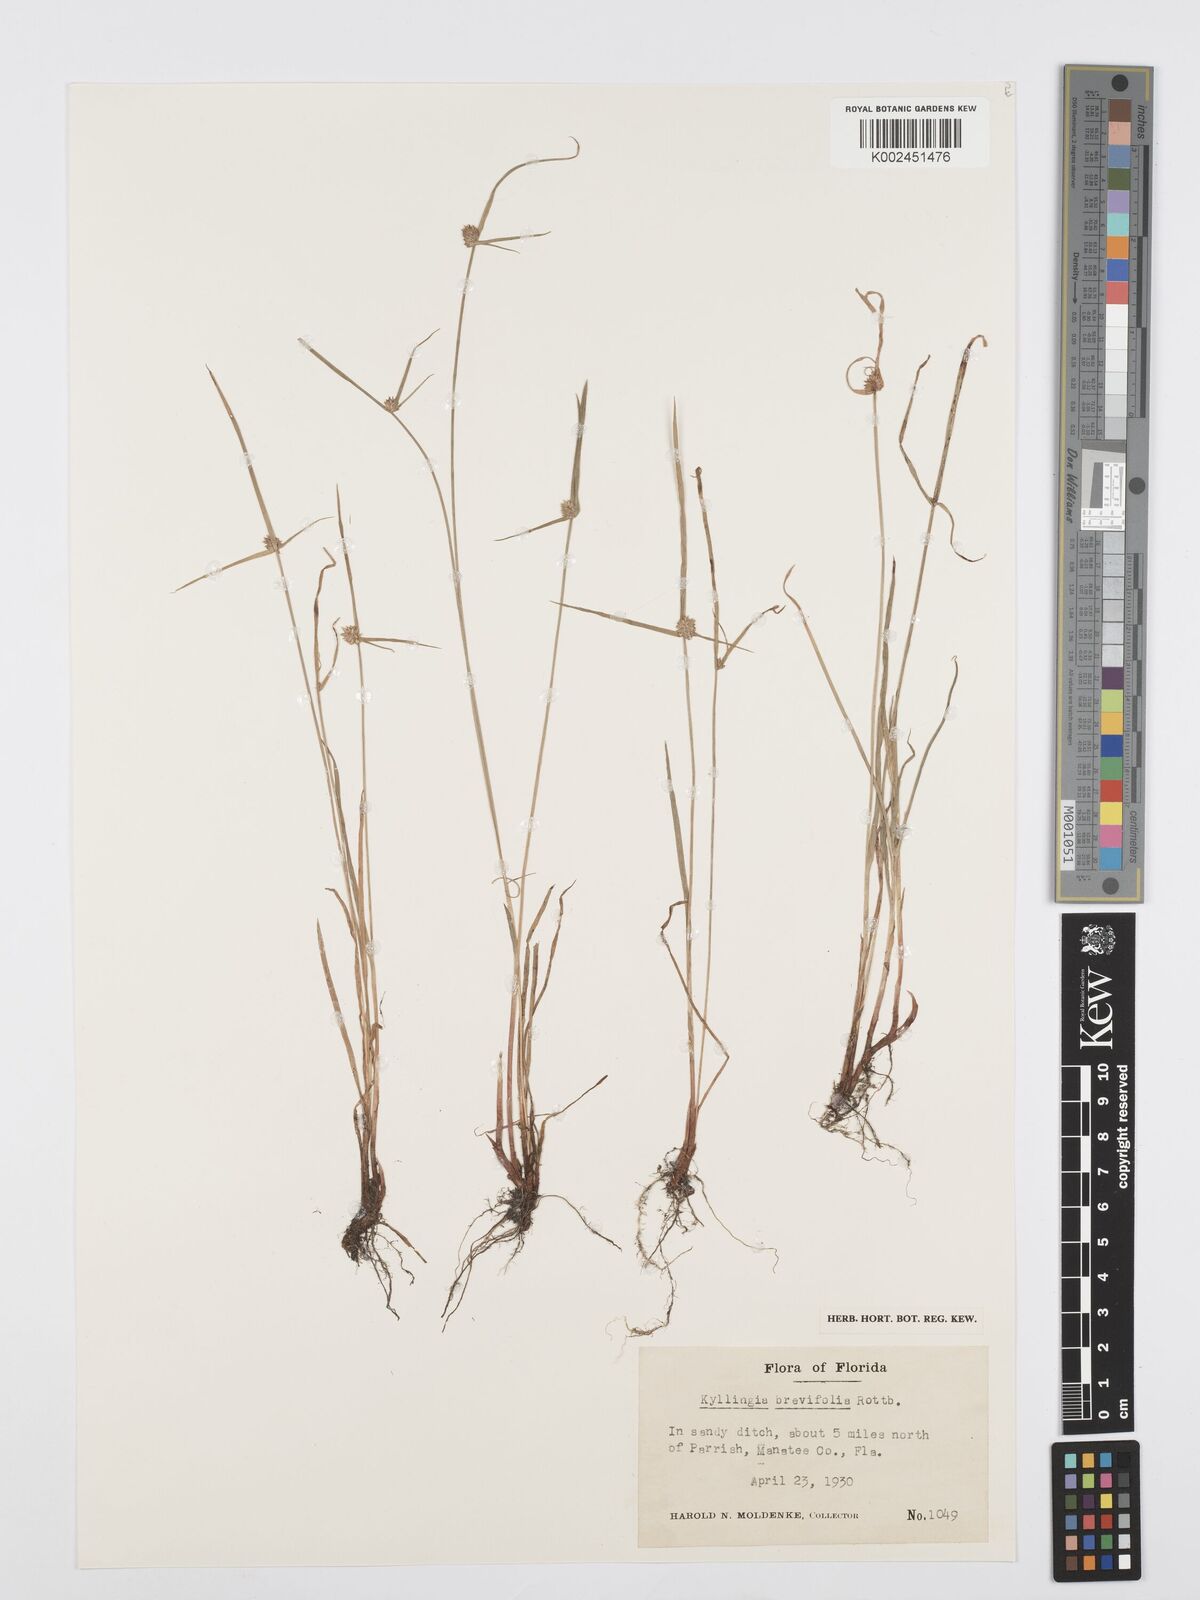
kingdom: Plantae
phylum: Tracheophyta
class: Liliopsida
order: Poales
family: Cyperaceae
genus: Cyperus
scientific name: Cyperus brevifolius
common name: Globe kyllinga
